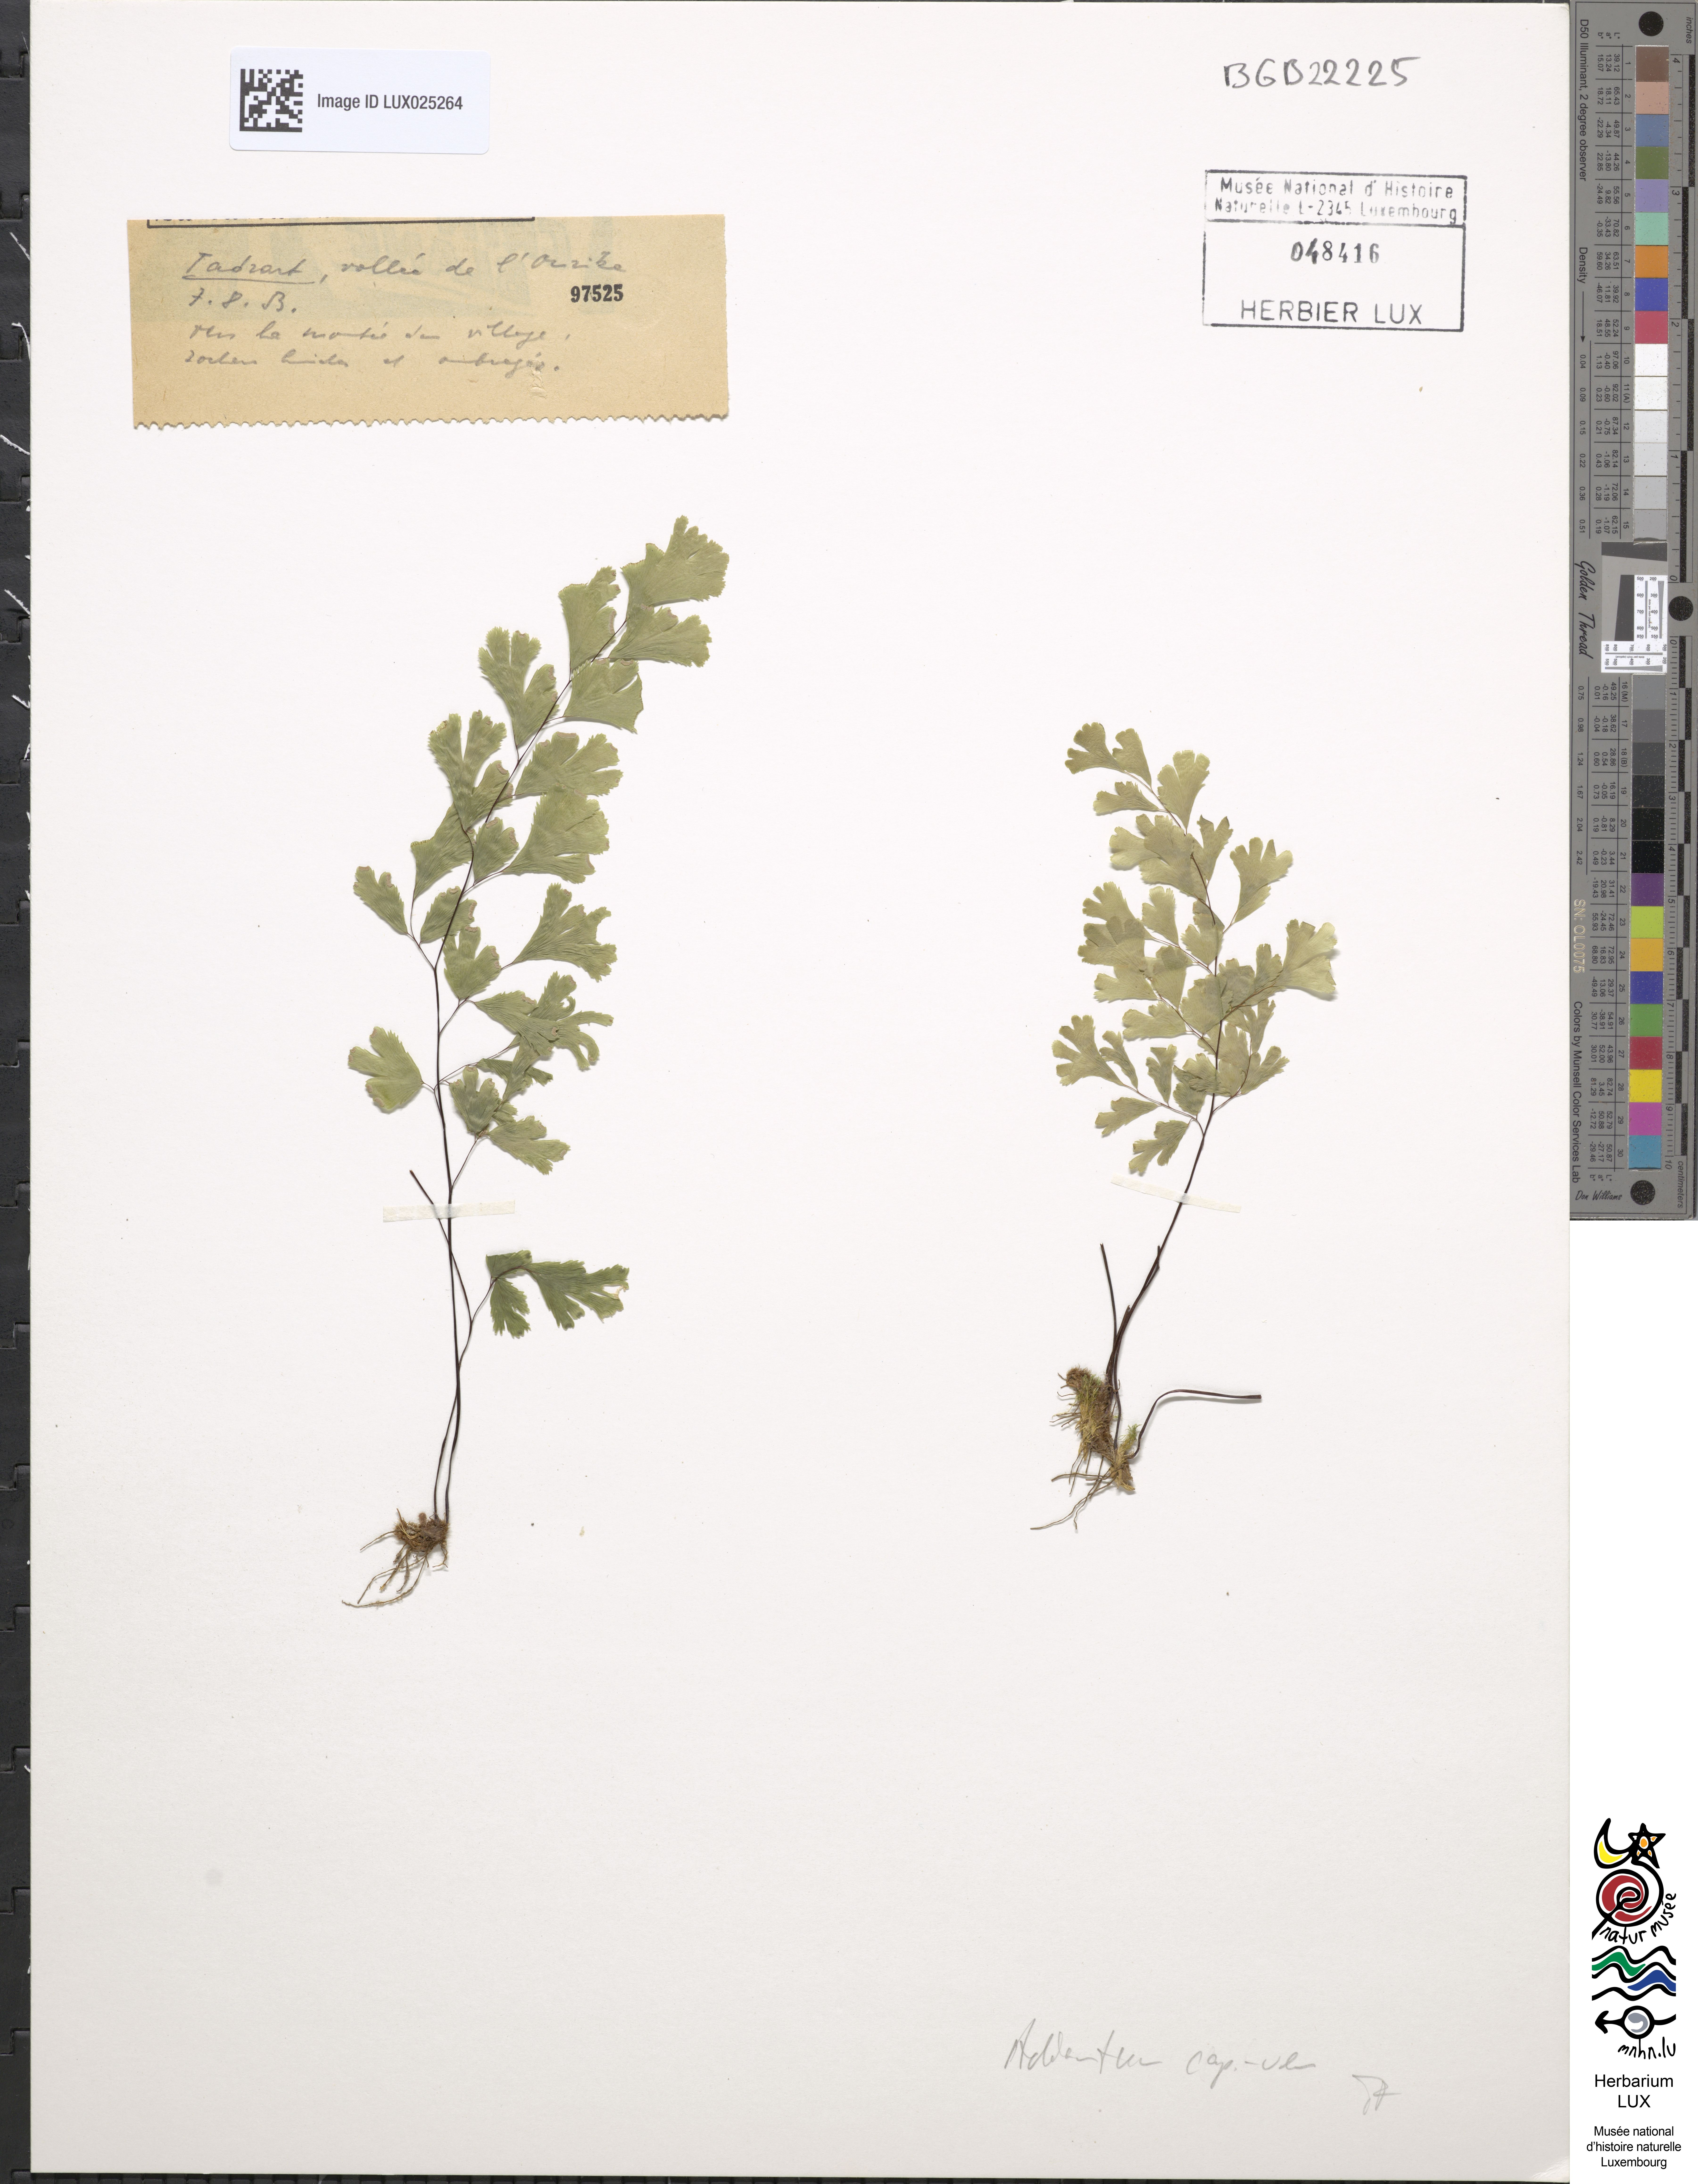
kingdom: Plantae
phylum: Tracheophyta
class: Polypodiopsida
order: Polypodiales
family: Pteridaceae
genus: Adiantum
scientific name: Adiantum capillus-veneris
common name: Maidenhair fern
